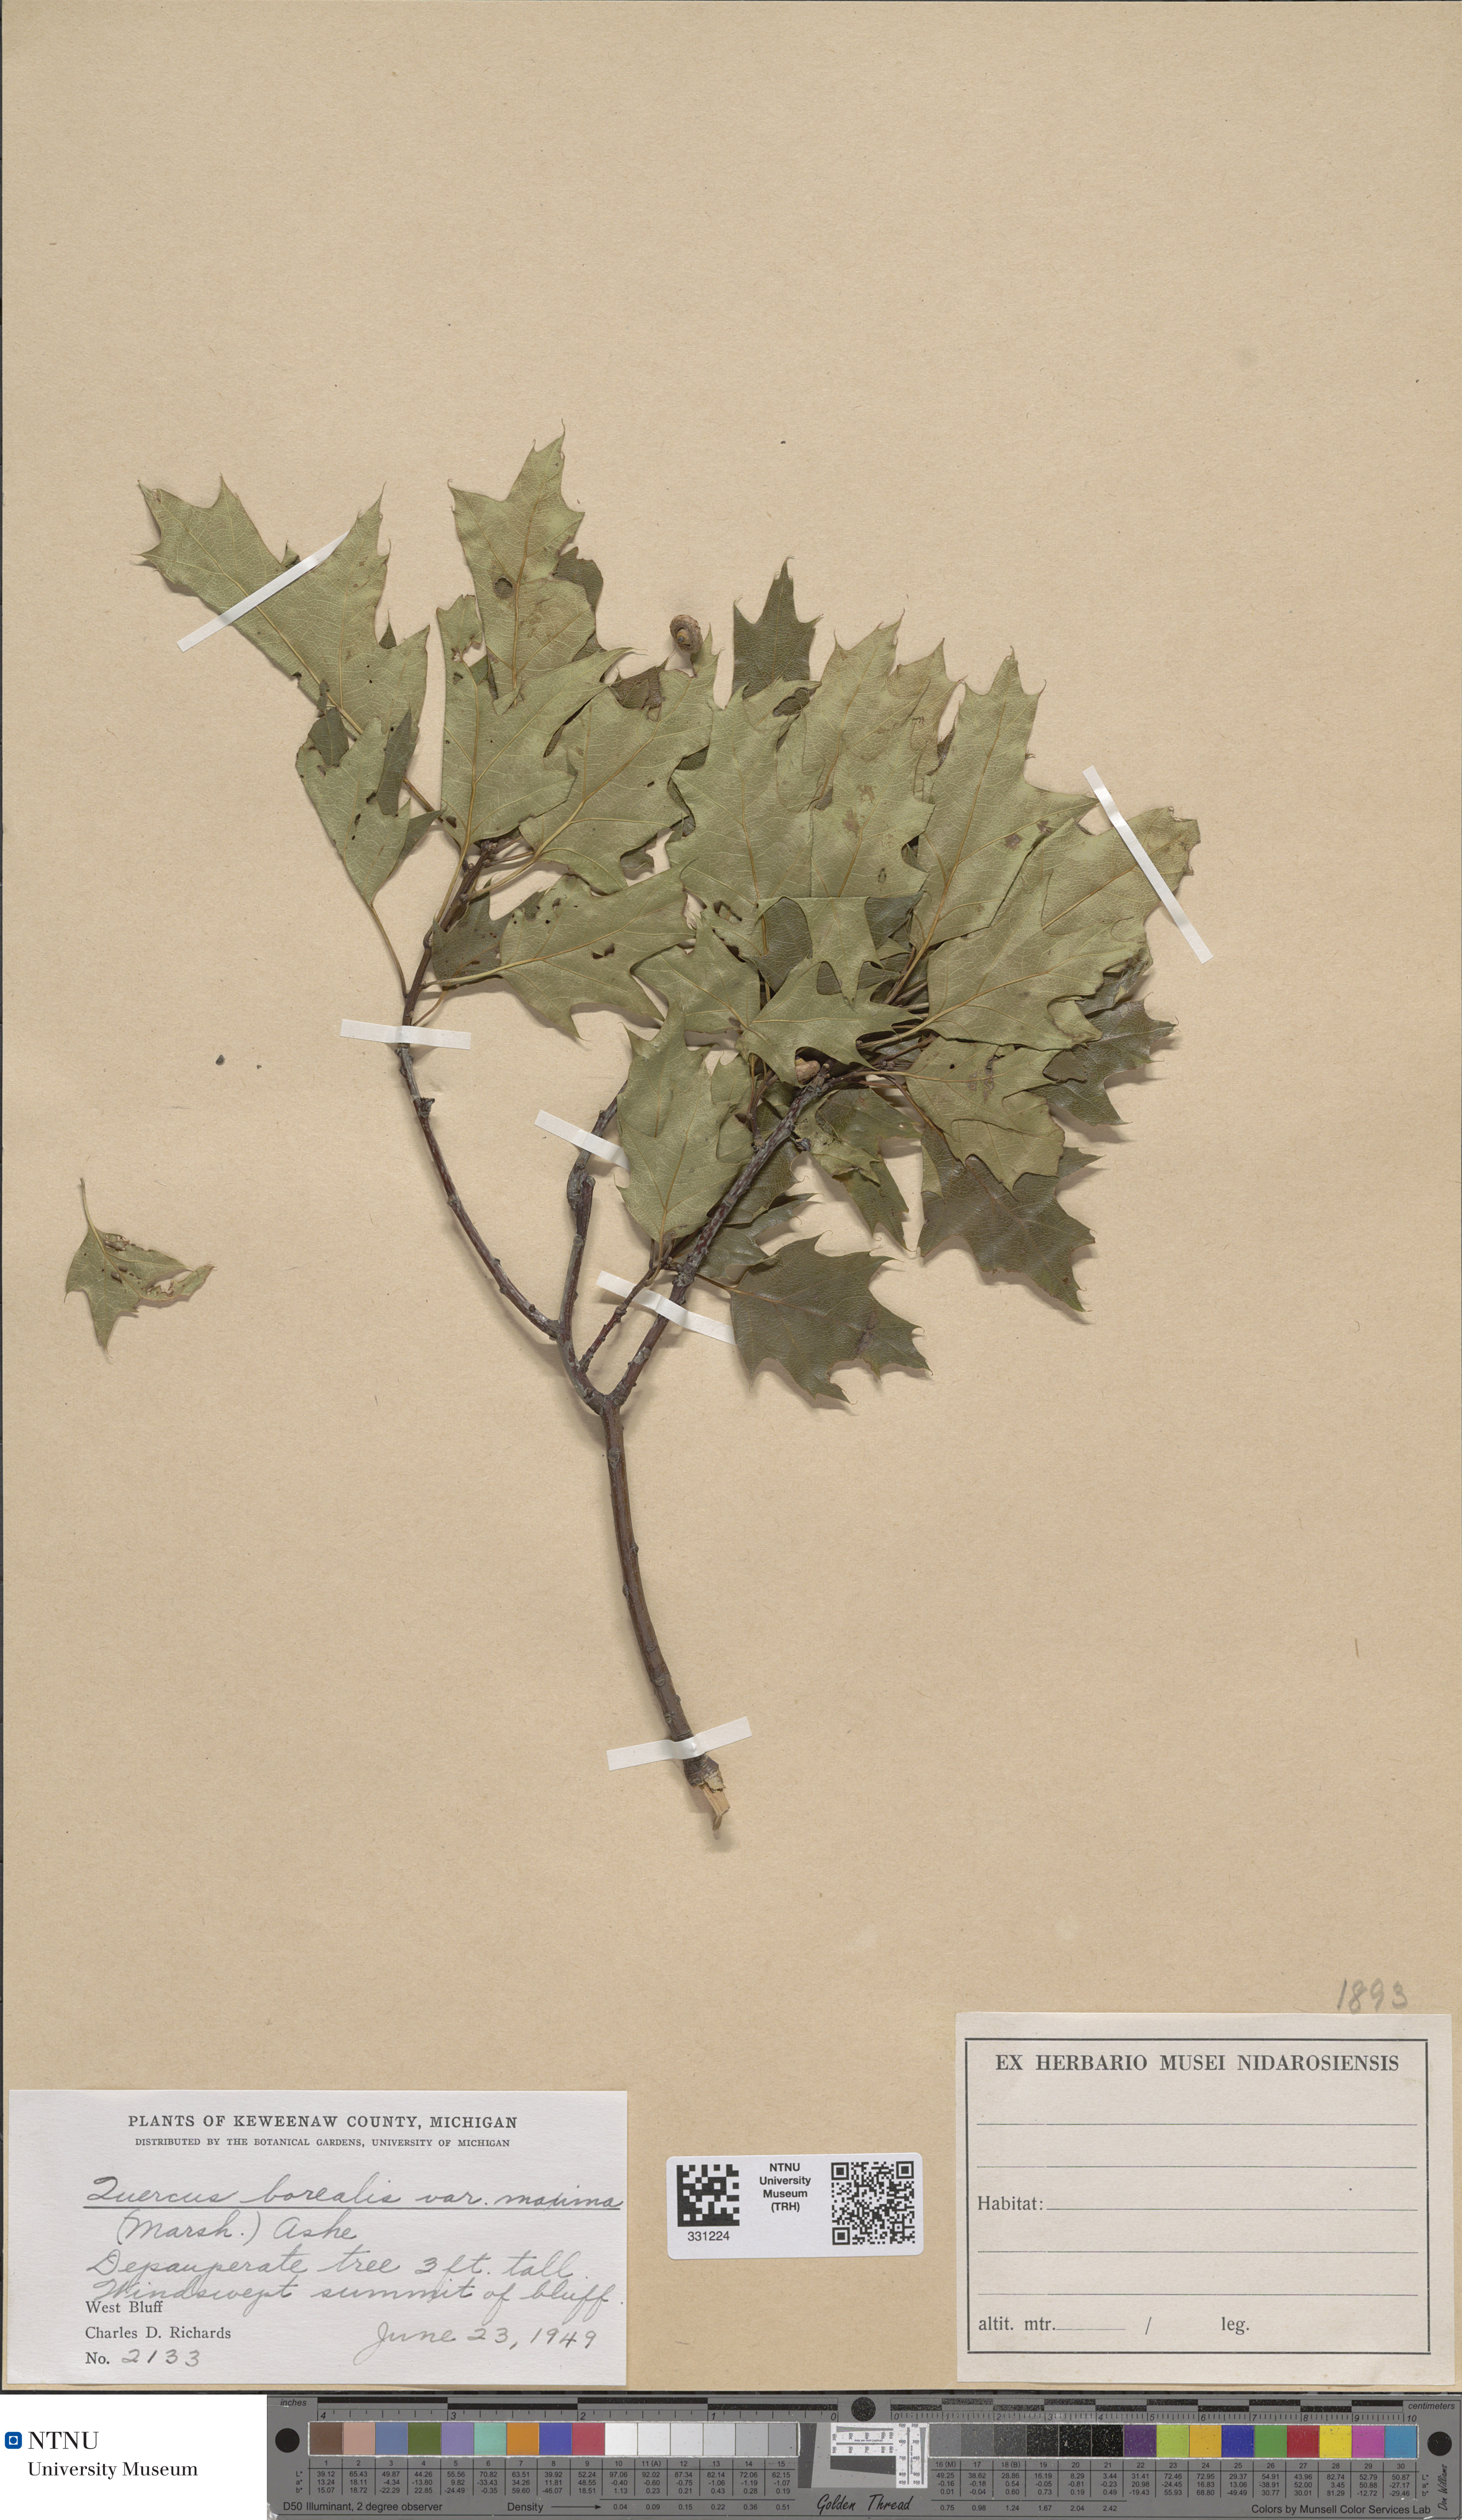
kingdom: Plantae
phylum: Tracheophyta
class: Magnoliopsida
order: Fagales
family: Fagaceae
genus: Quercus
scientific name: Quercus rubra
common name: Red oak
